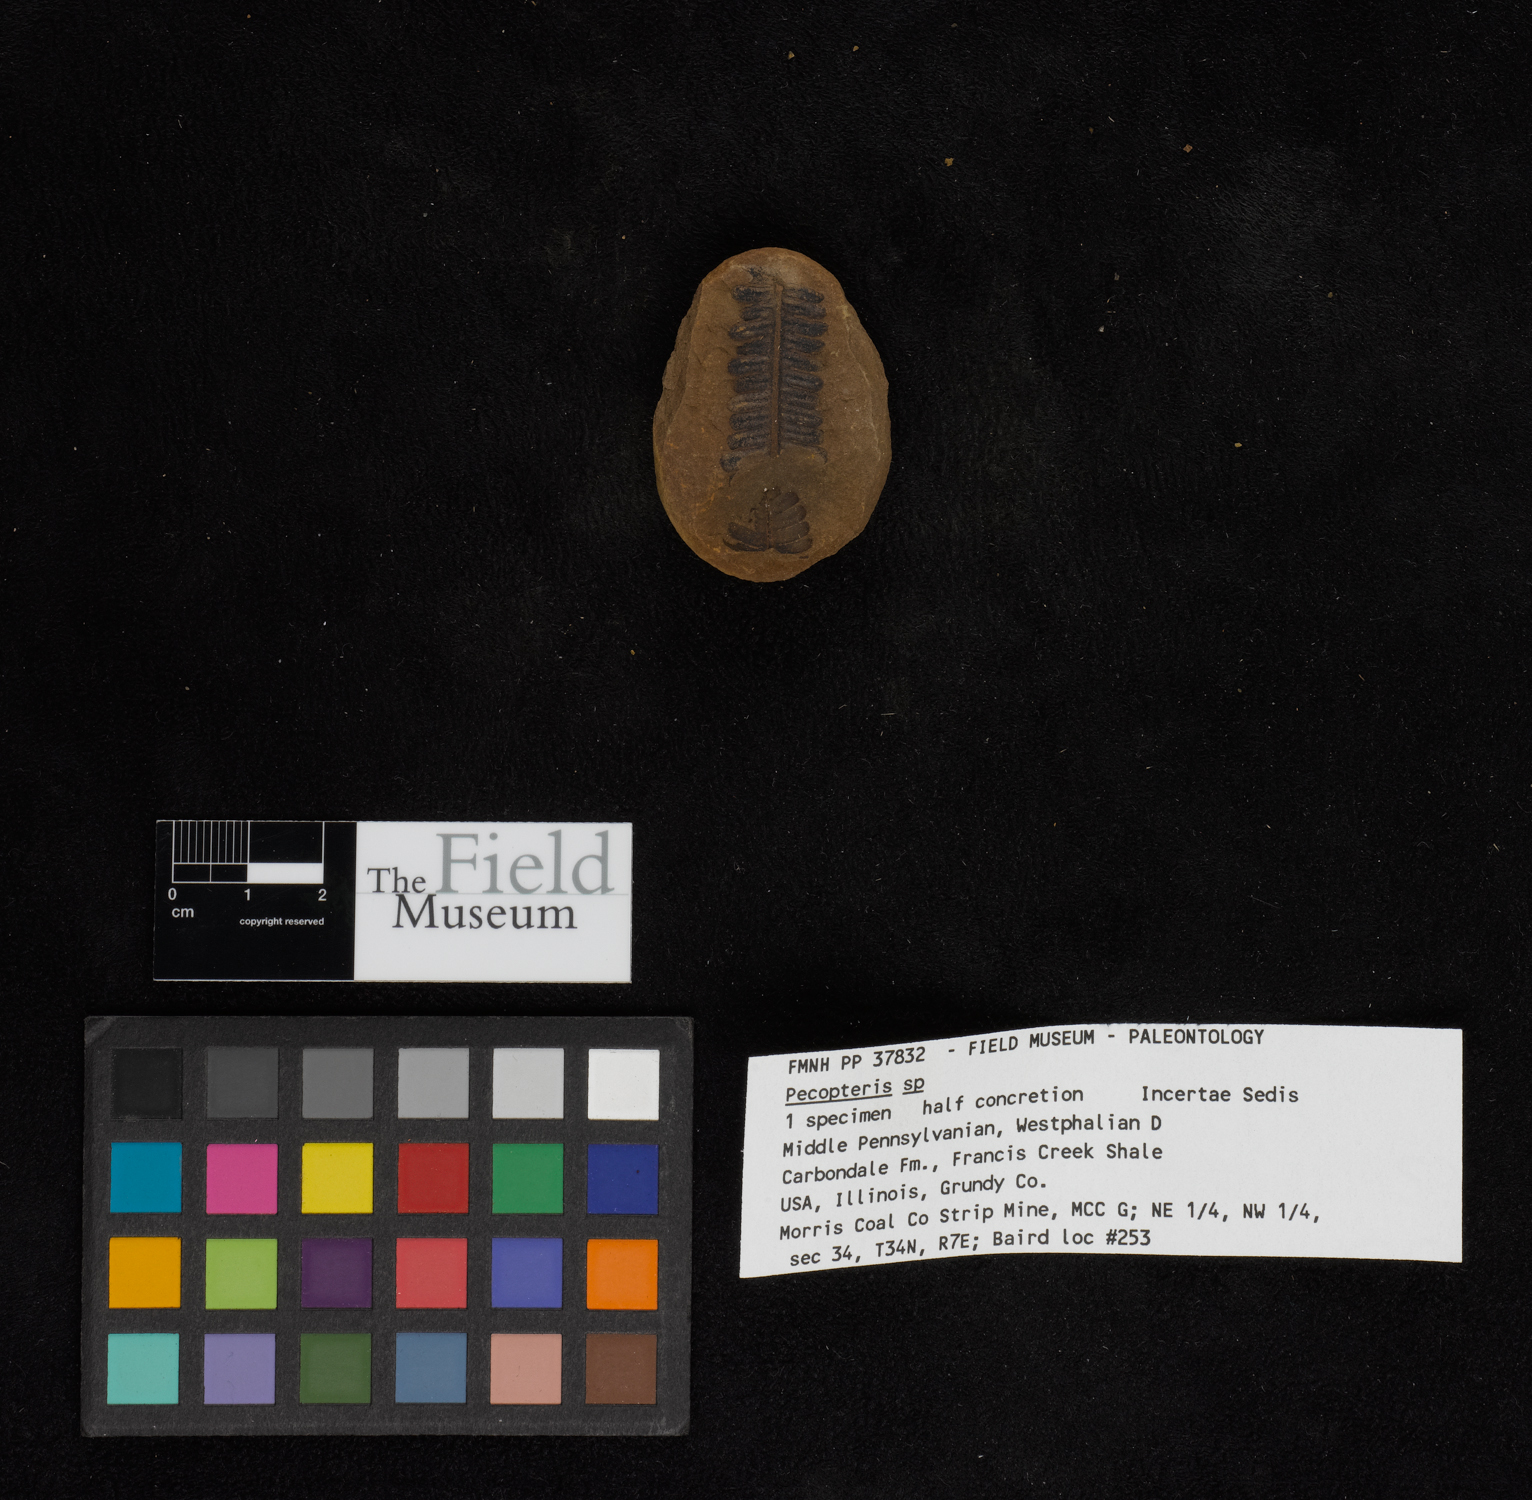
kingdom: Plantae
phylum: Tracheophyta
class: Polypodiopsida
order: Marattiales
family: Asterothecaceae
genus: Pecopteris
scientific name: Pecopteris
